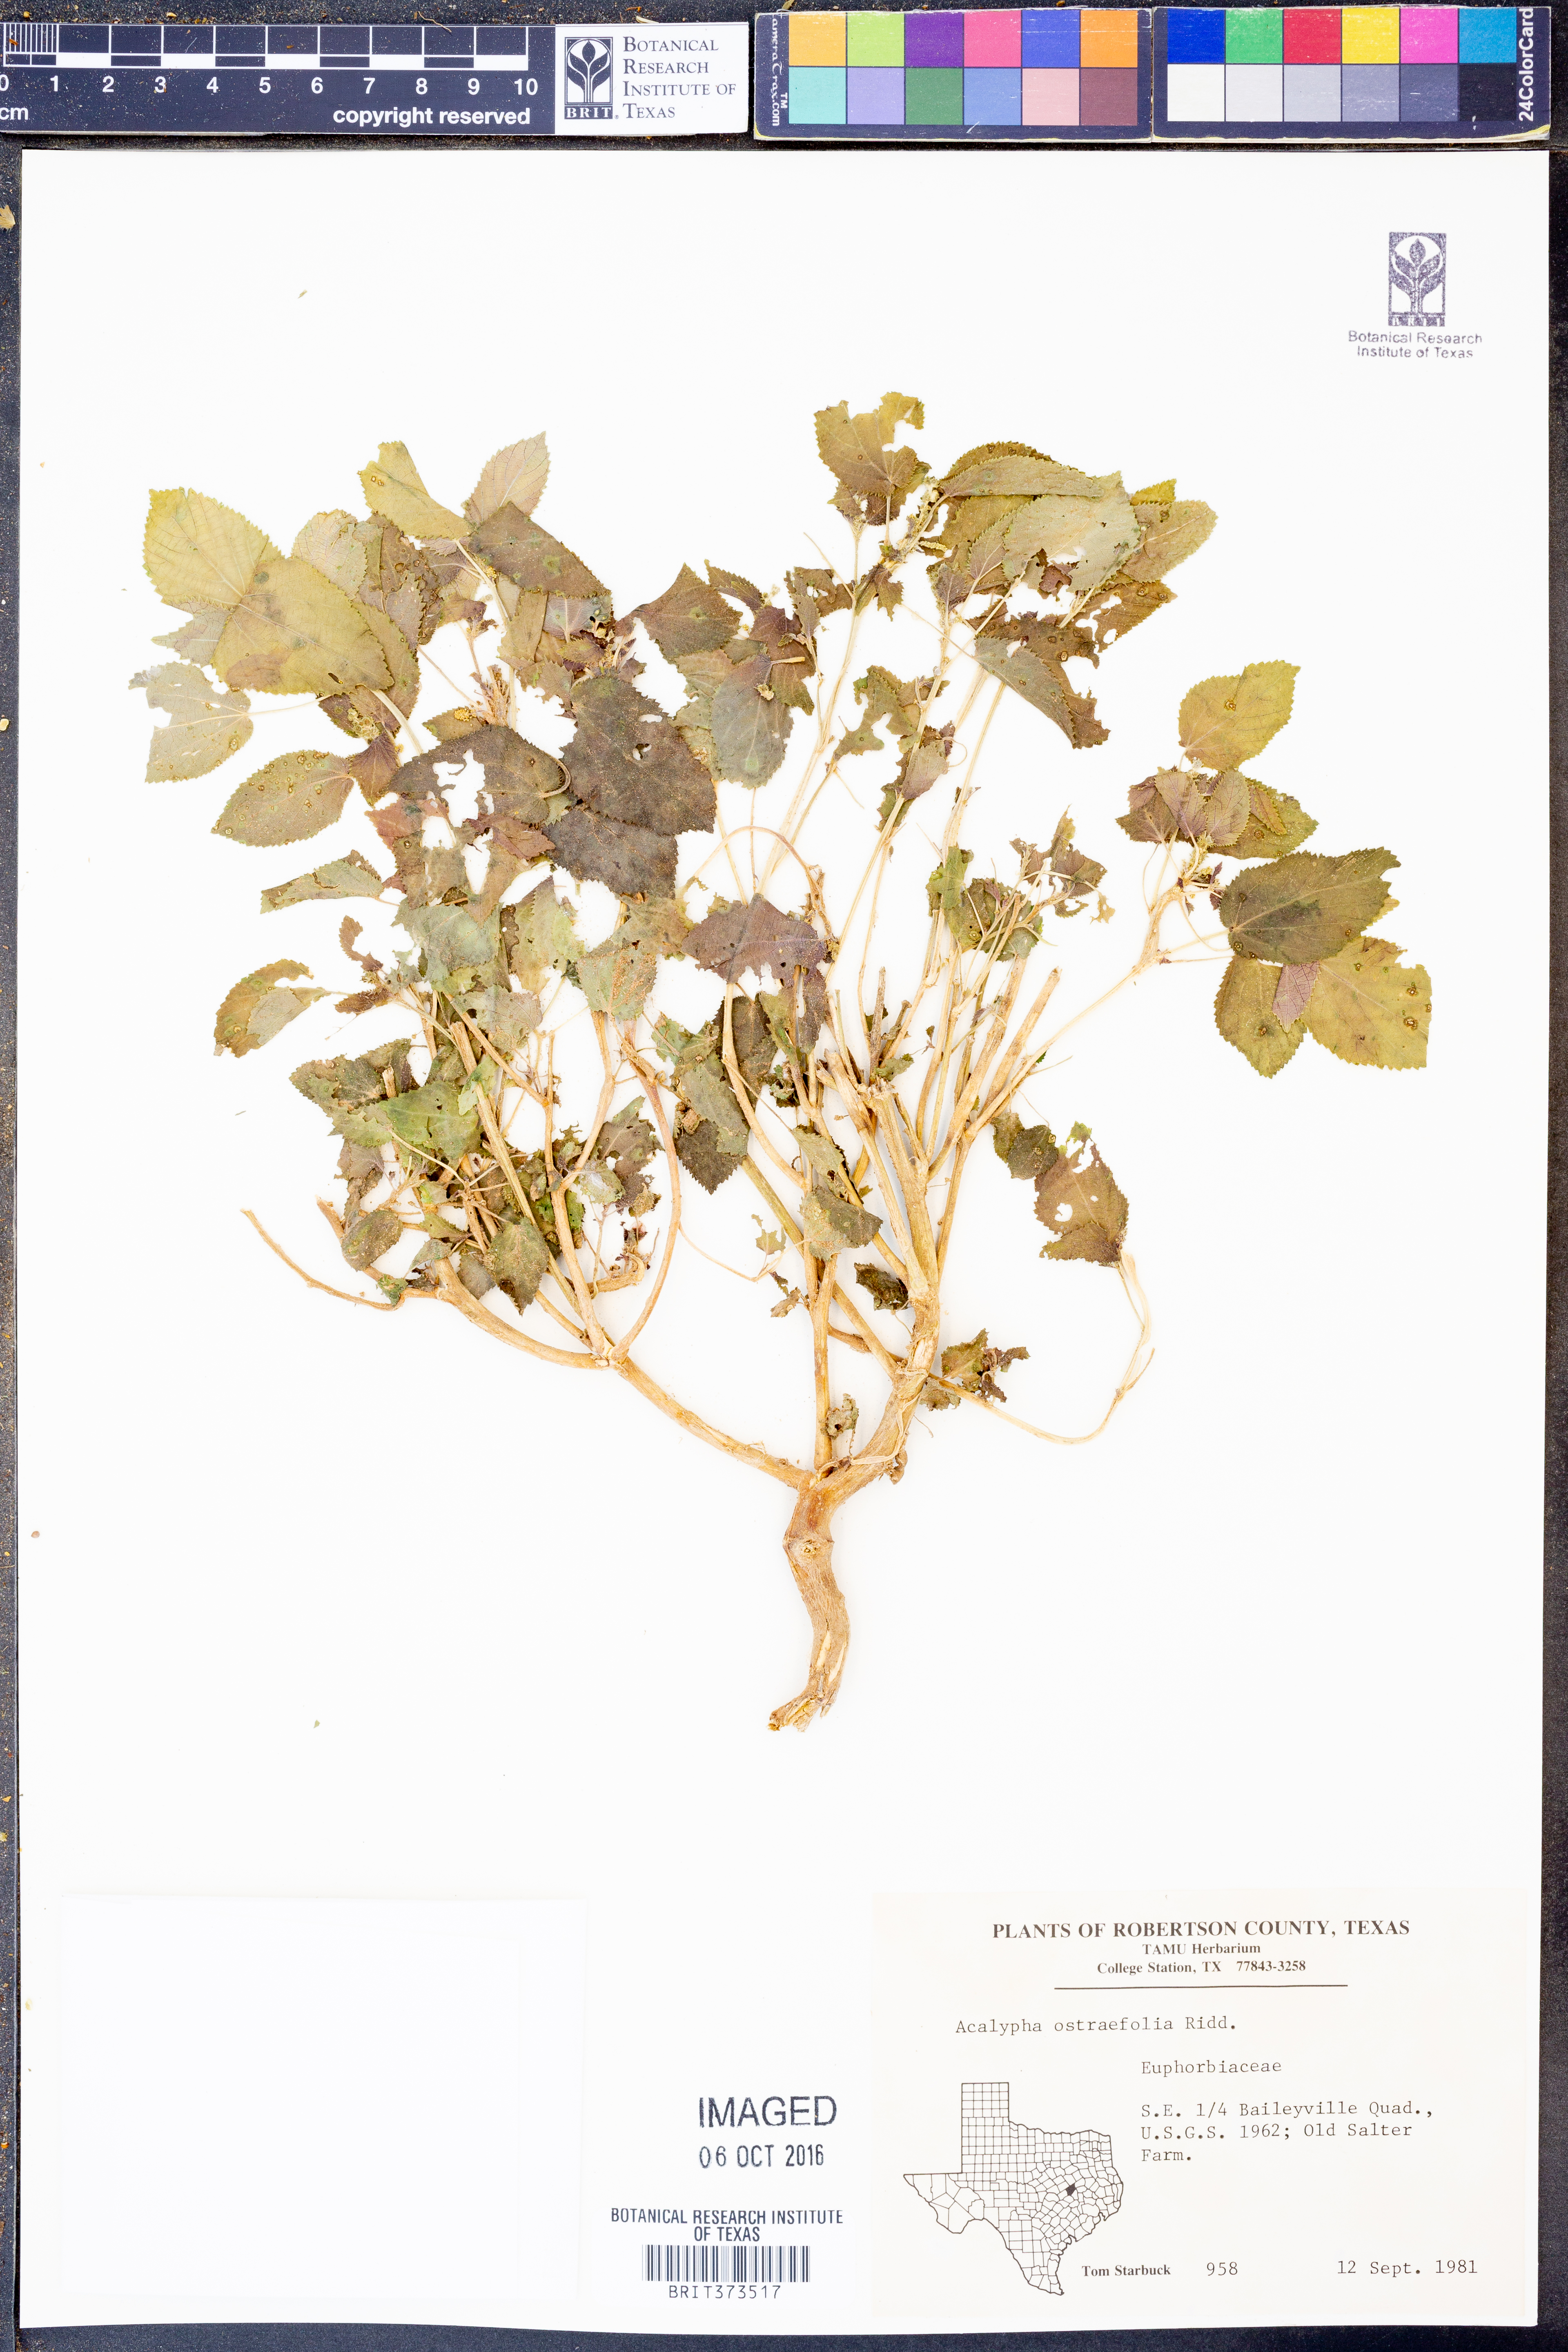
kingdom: Plantae
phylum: Tracheophyta
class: Magnoliopsida
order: Malpighiales
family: Euphorbiaceae
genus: Acalypha
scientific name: Acalypha ostryifolia
